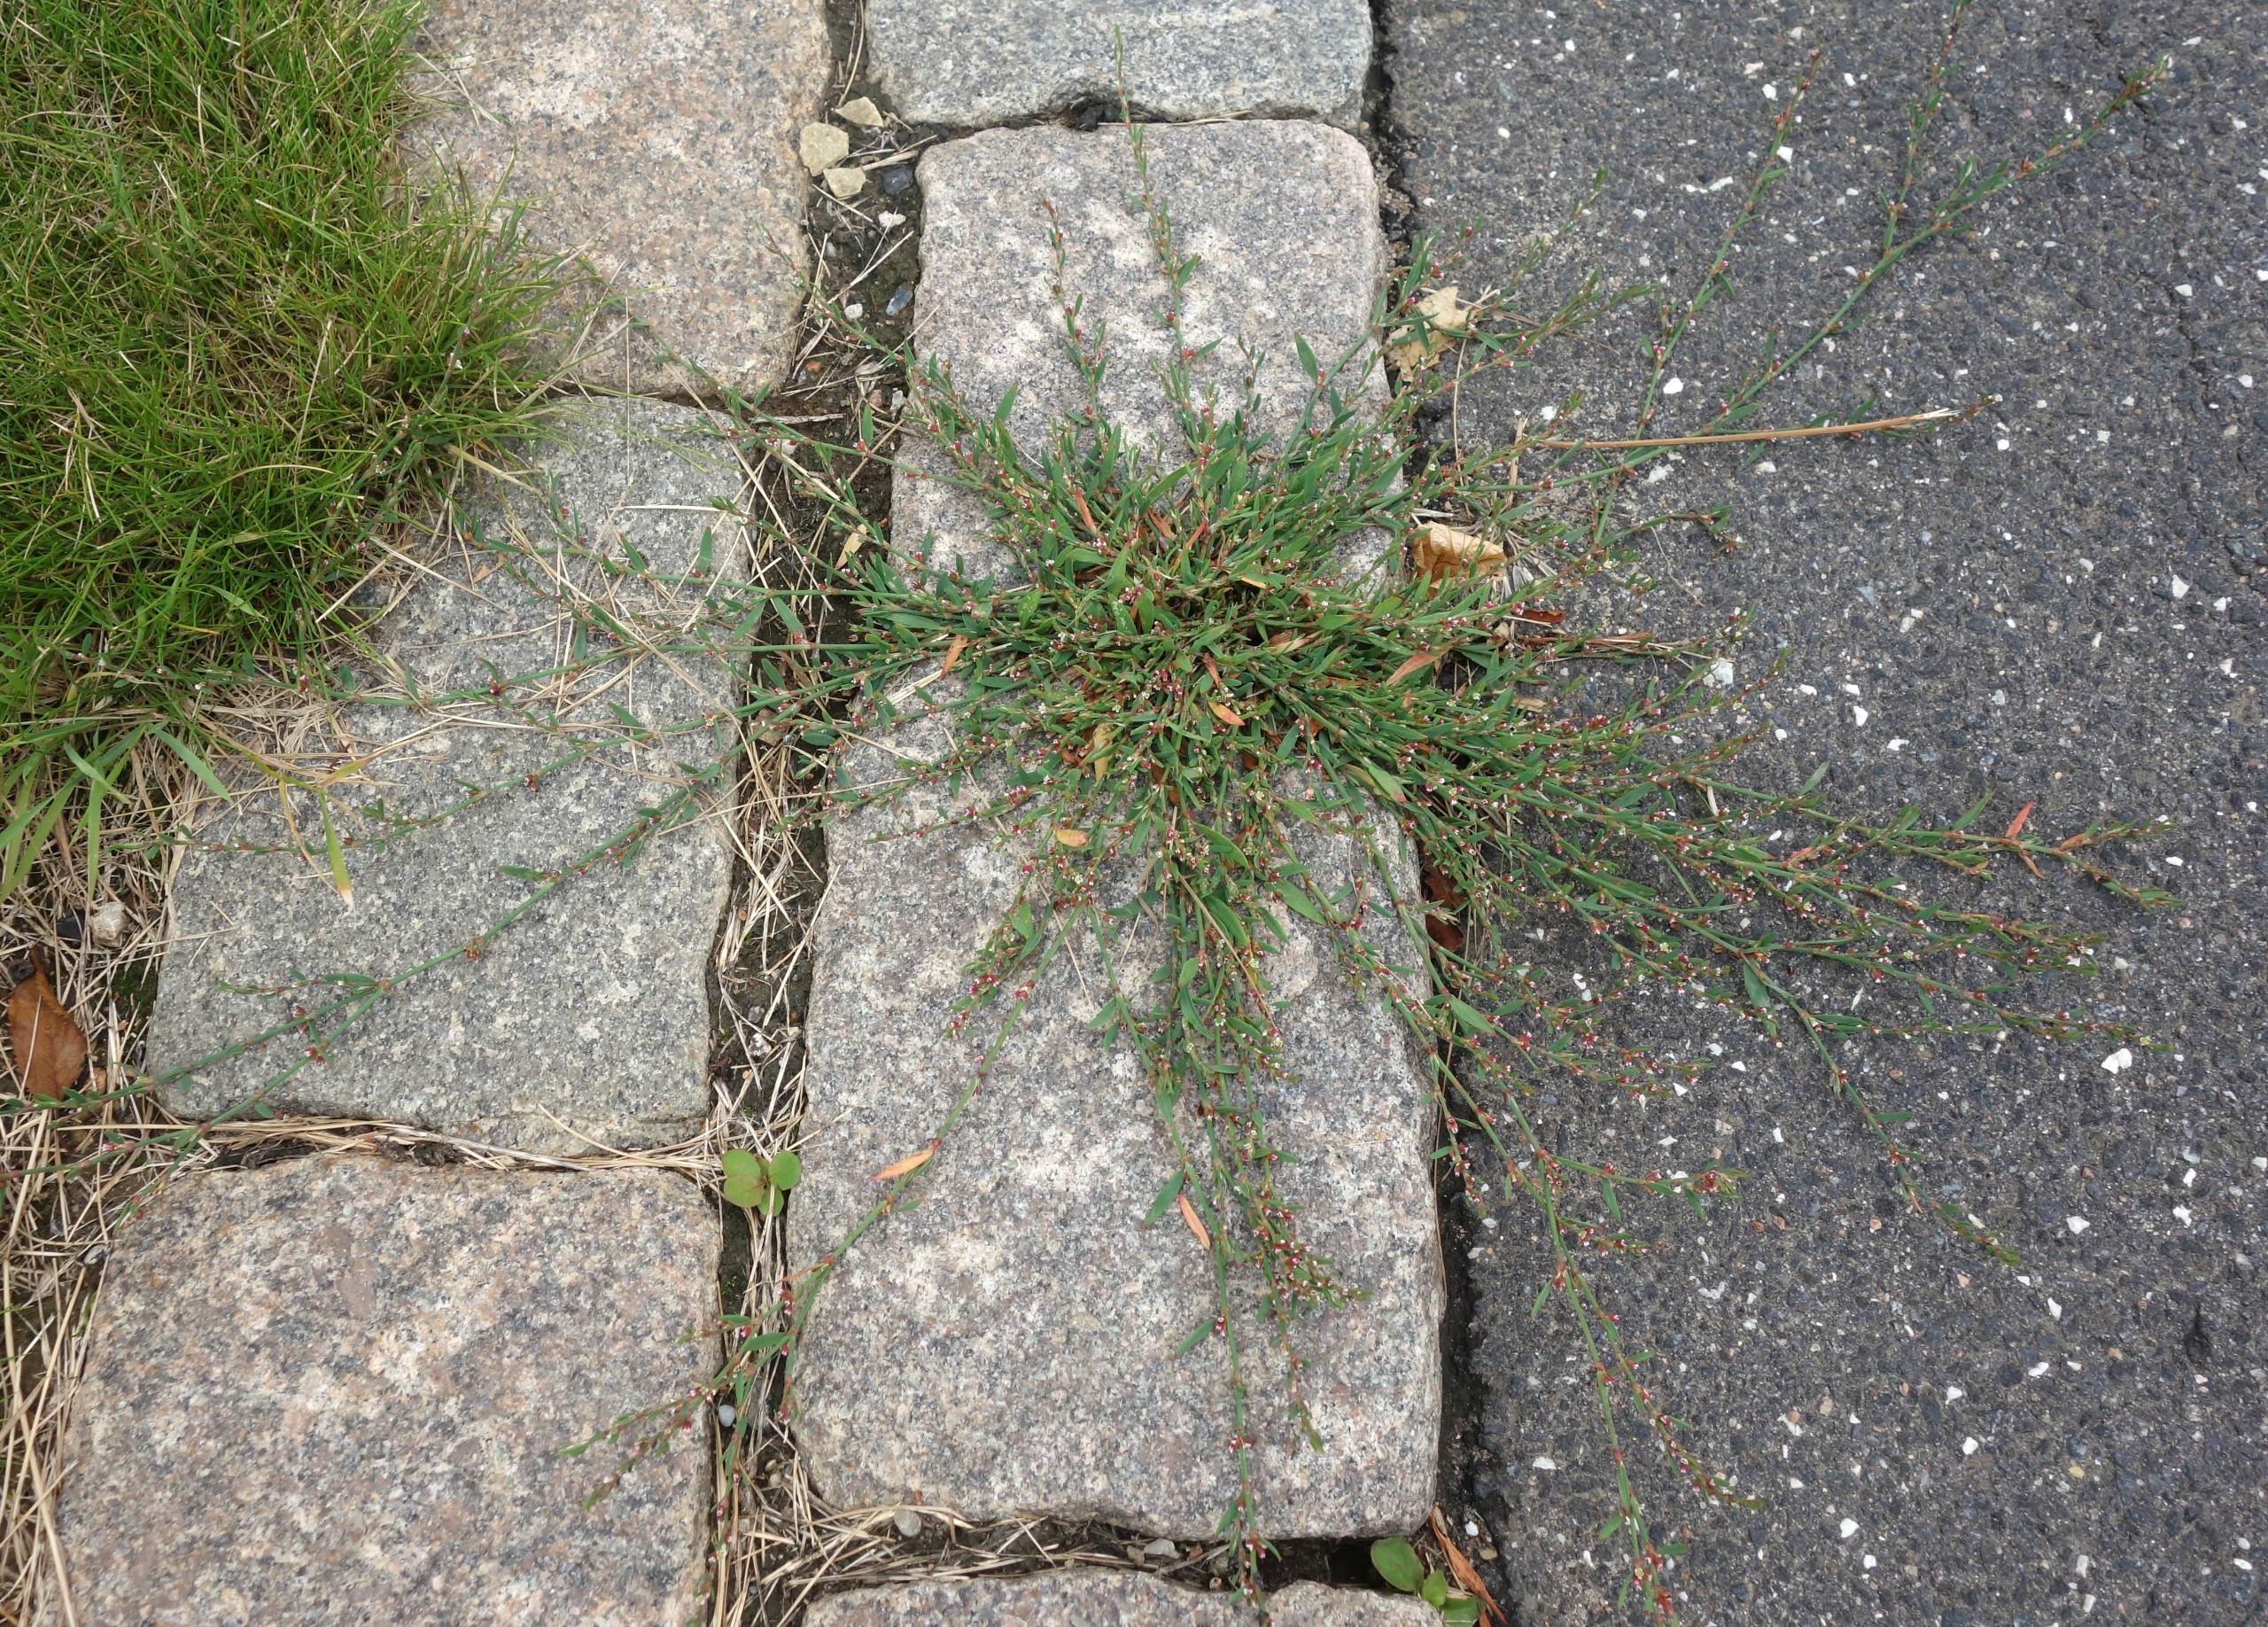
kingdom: Plantae
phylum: Tracheophyta
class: Magnoliopsida
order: Caryophyllales
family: Polygonaceae
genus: Polygonum
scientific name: Polygonum aviculare
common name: Spidsbladet vej-pileurt
